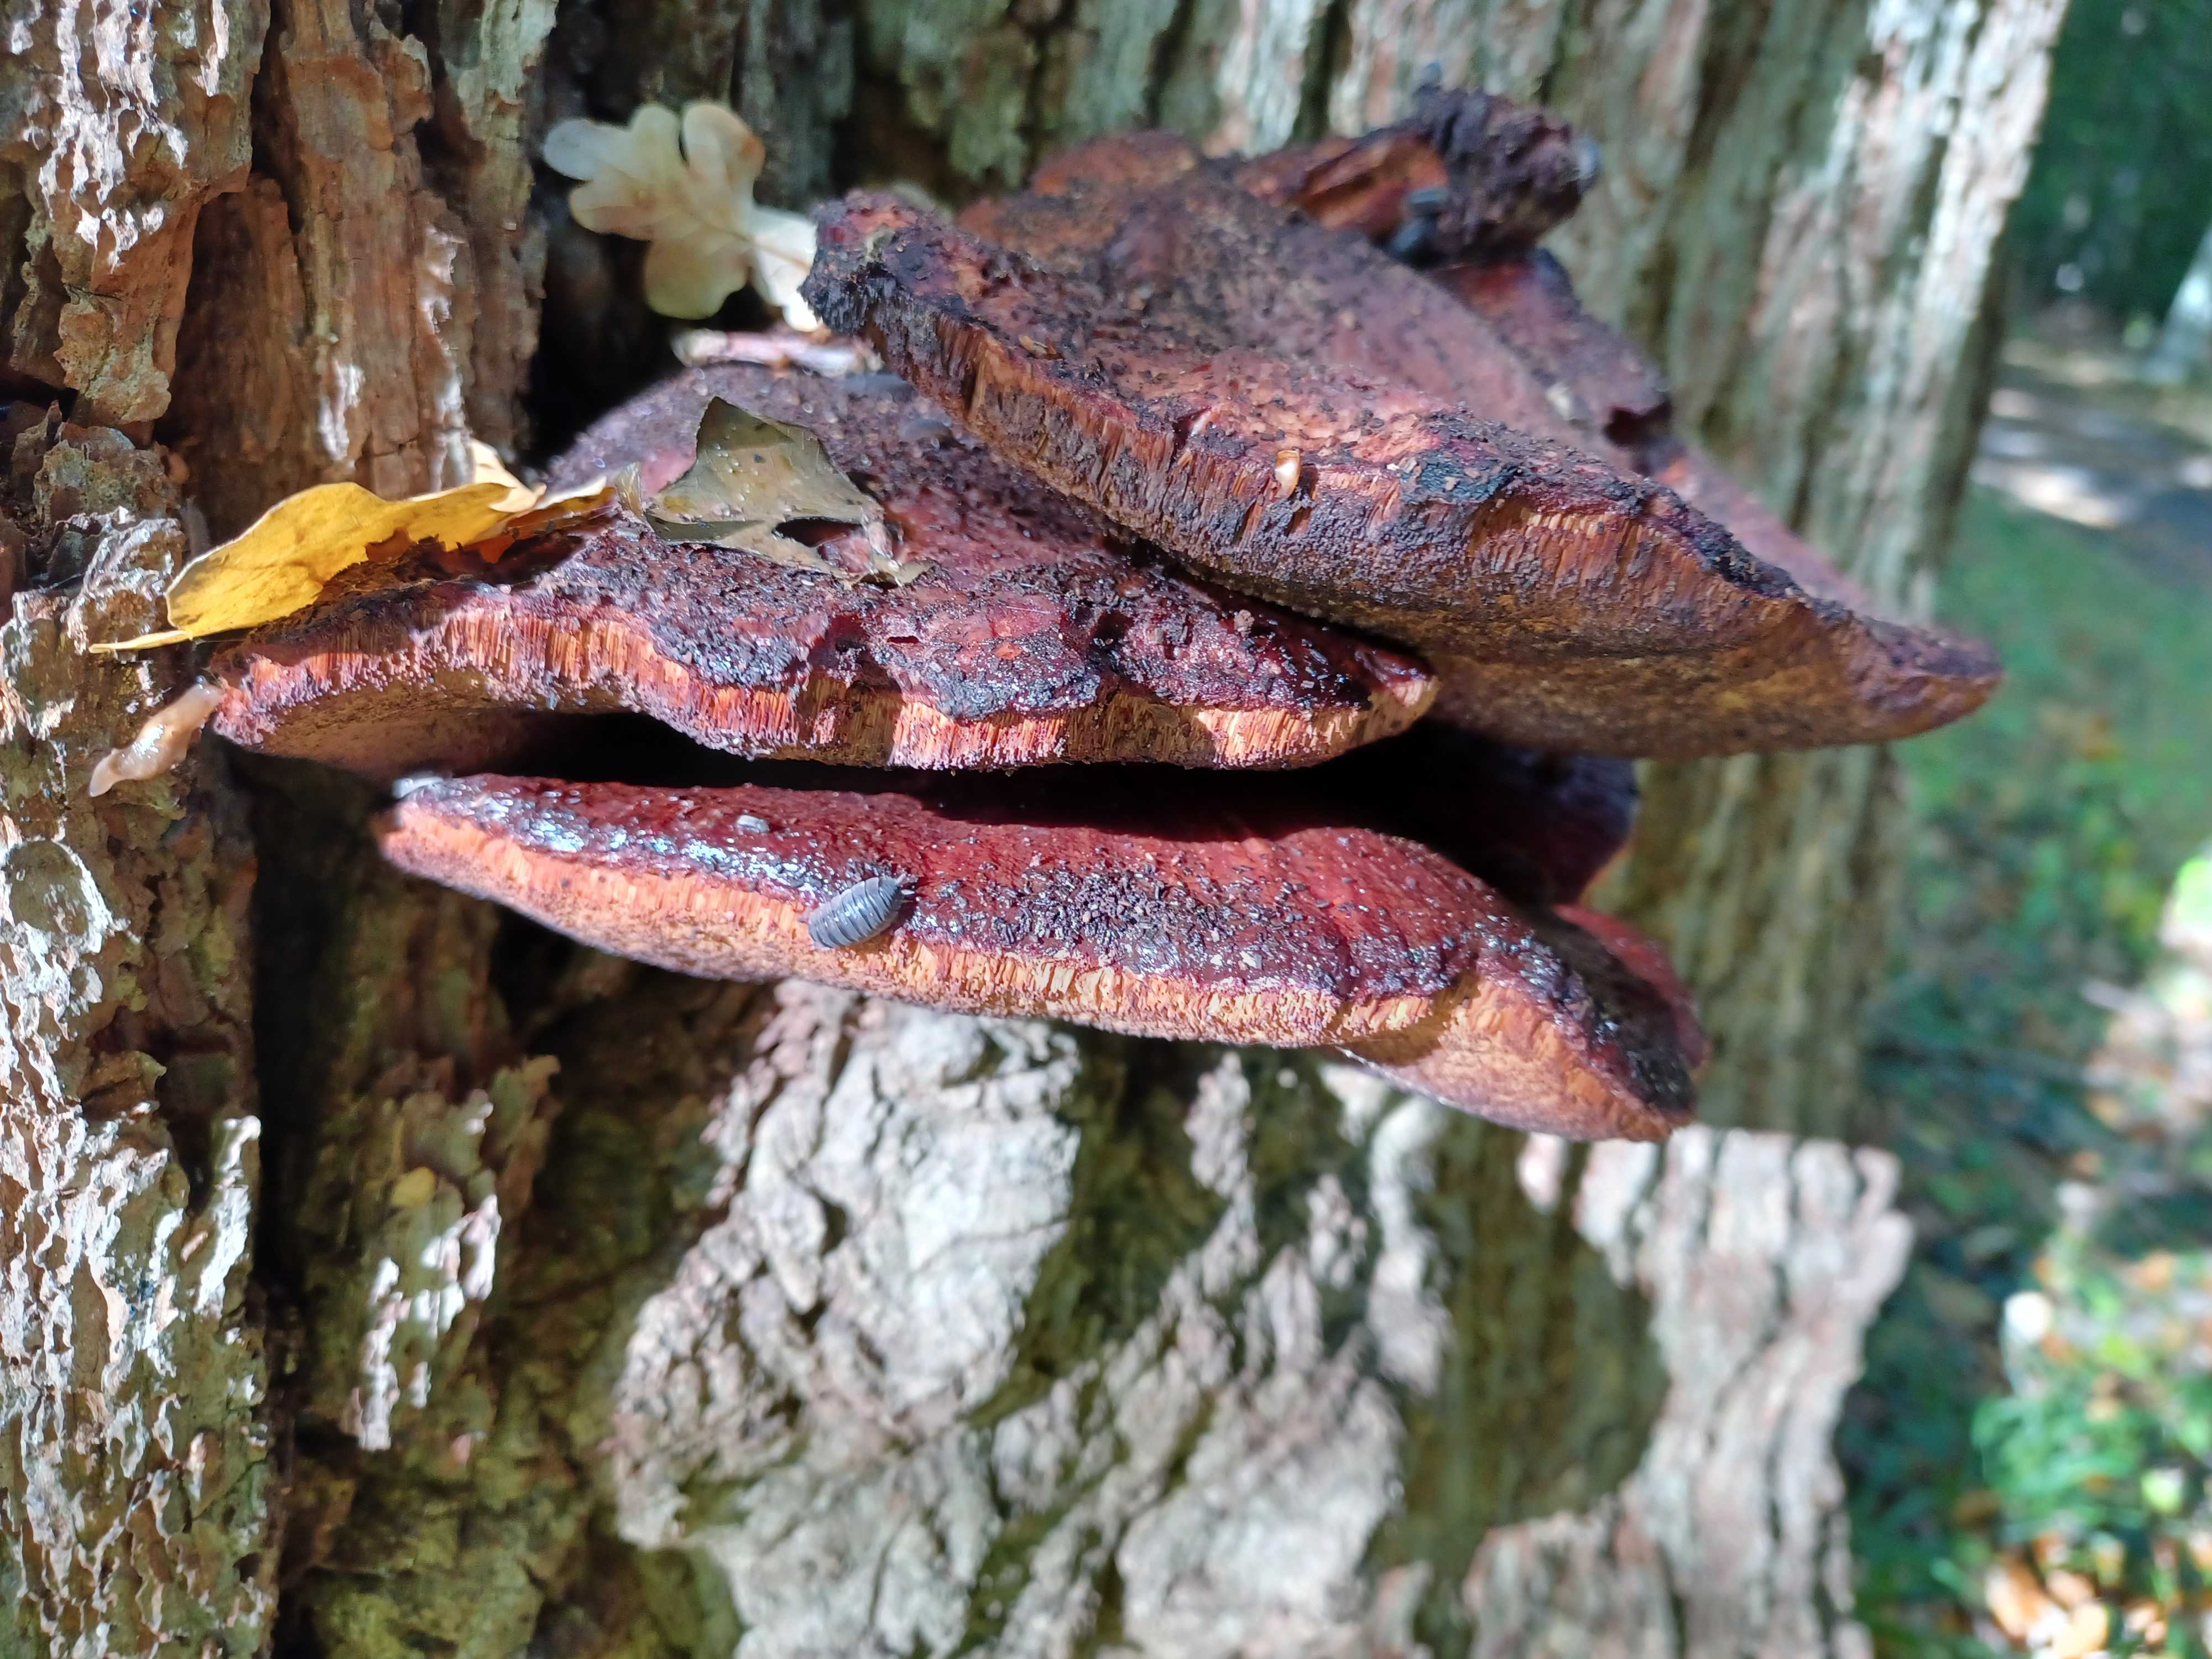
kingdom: Fungi
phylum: Basidiomycota
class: Agaricomycetes
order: Agaricales
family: Fistulinaceae
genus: Fistulina
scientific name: Fistulina hepatica
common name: oksetunge
